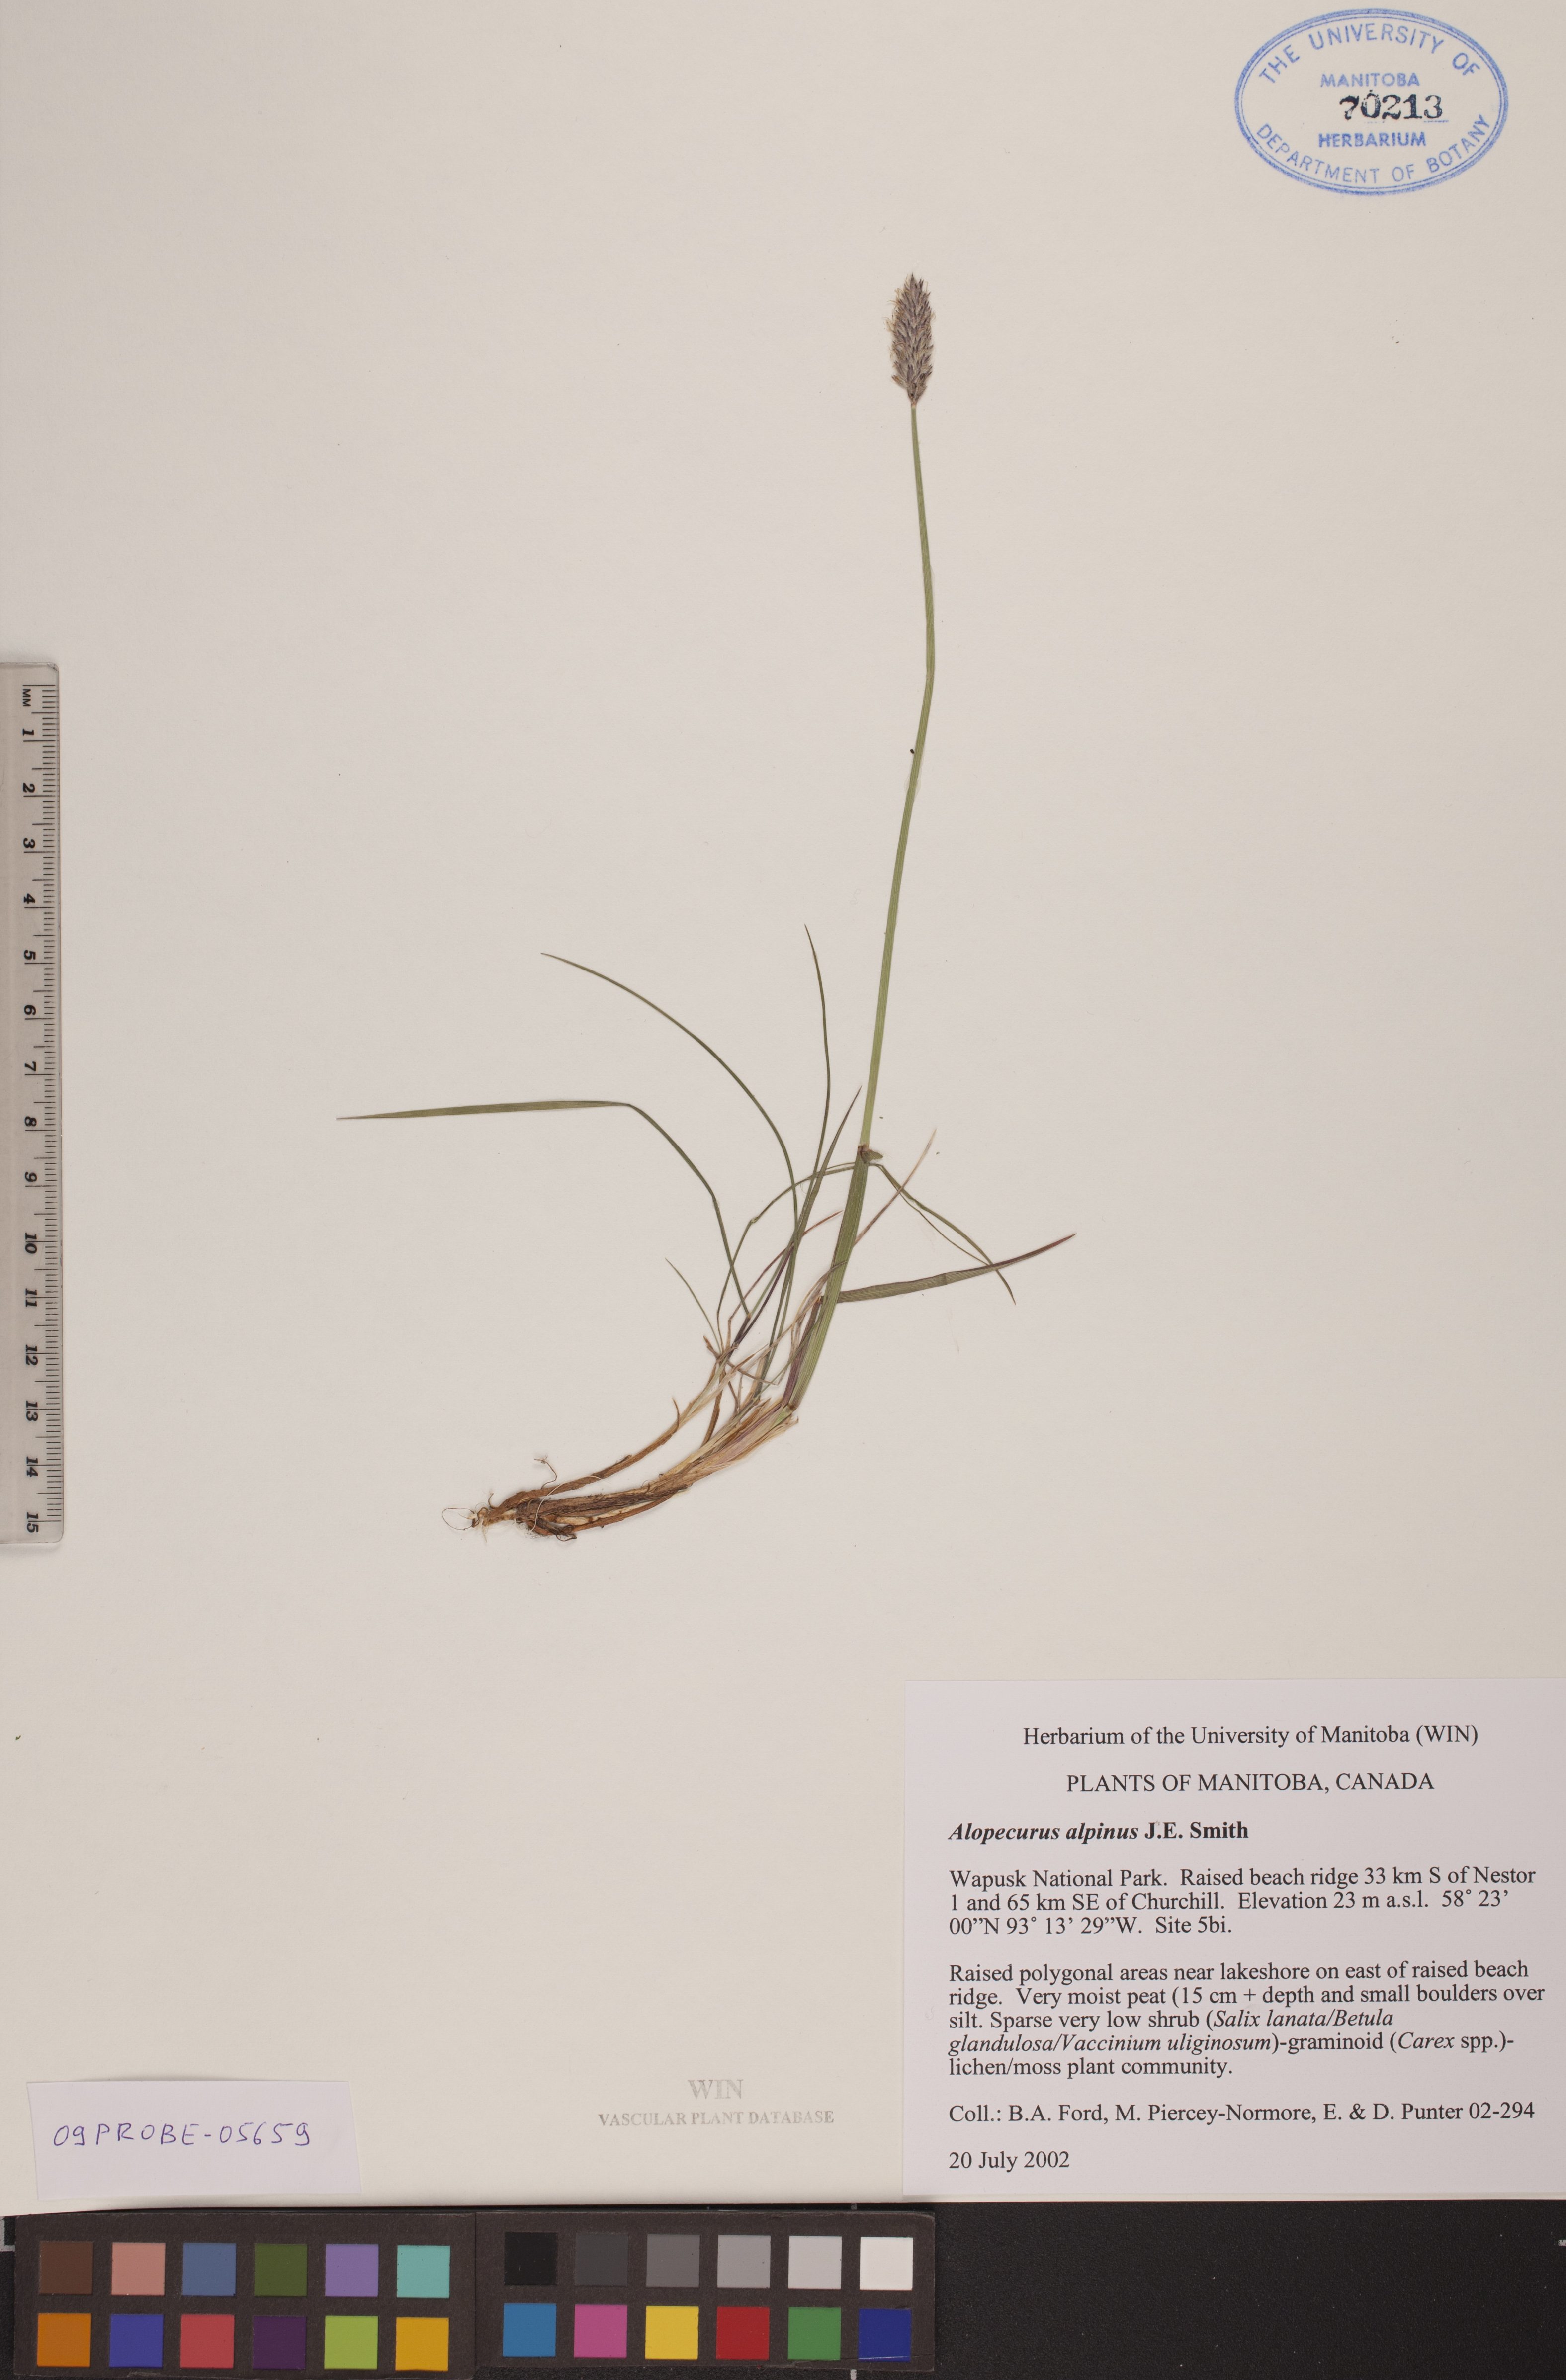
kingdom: Plantae
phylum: Tracheophyta
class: Liliopsida
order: Poales
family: Poaceae
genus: Alopecurus
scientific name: Alopecurus magellanicus
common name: Alpine foxtail
